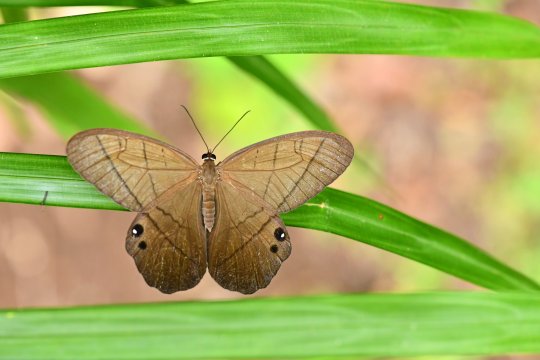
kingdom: Animalia
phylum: Arthropoda
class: Insecta
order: Lepidoptera
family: Nymphalidae
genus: Pierella
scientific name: Pierella luna
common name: Moon Satyr
